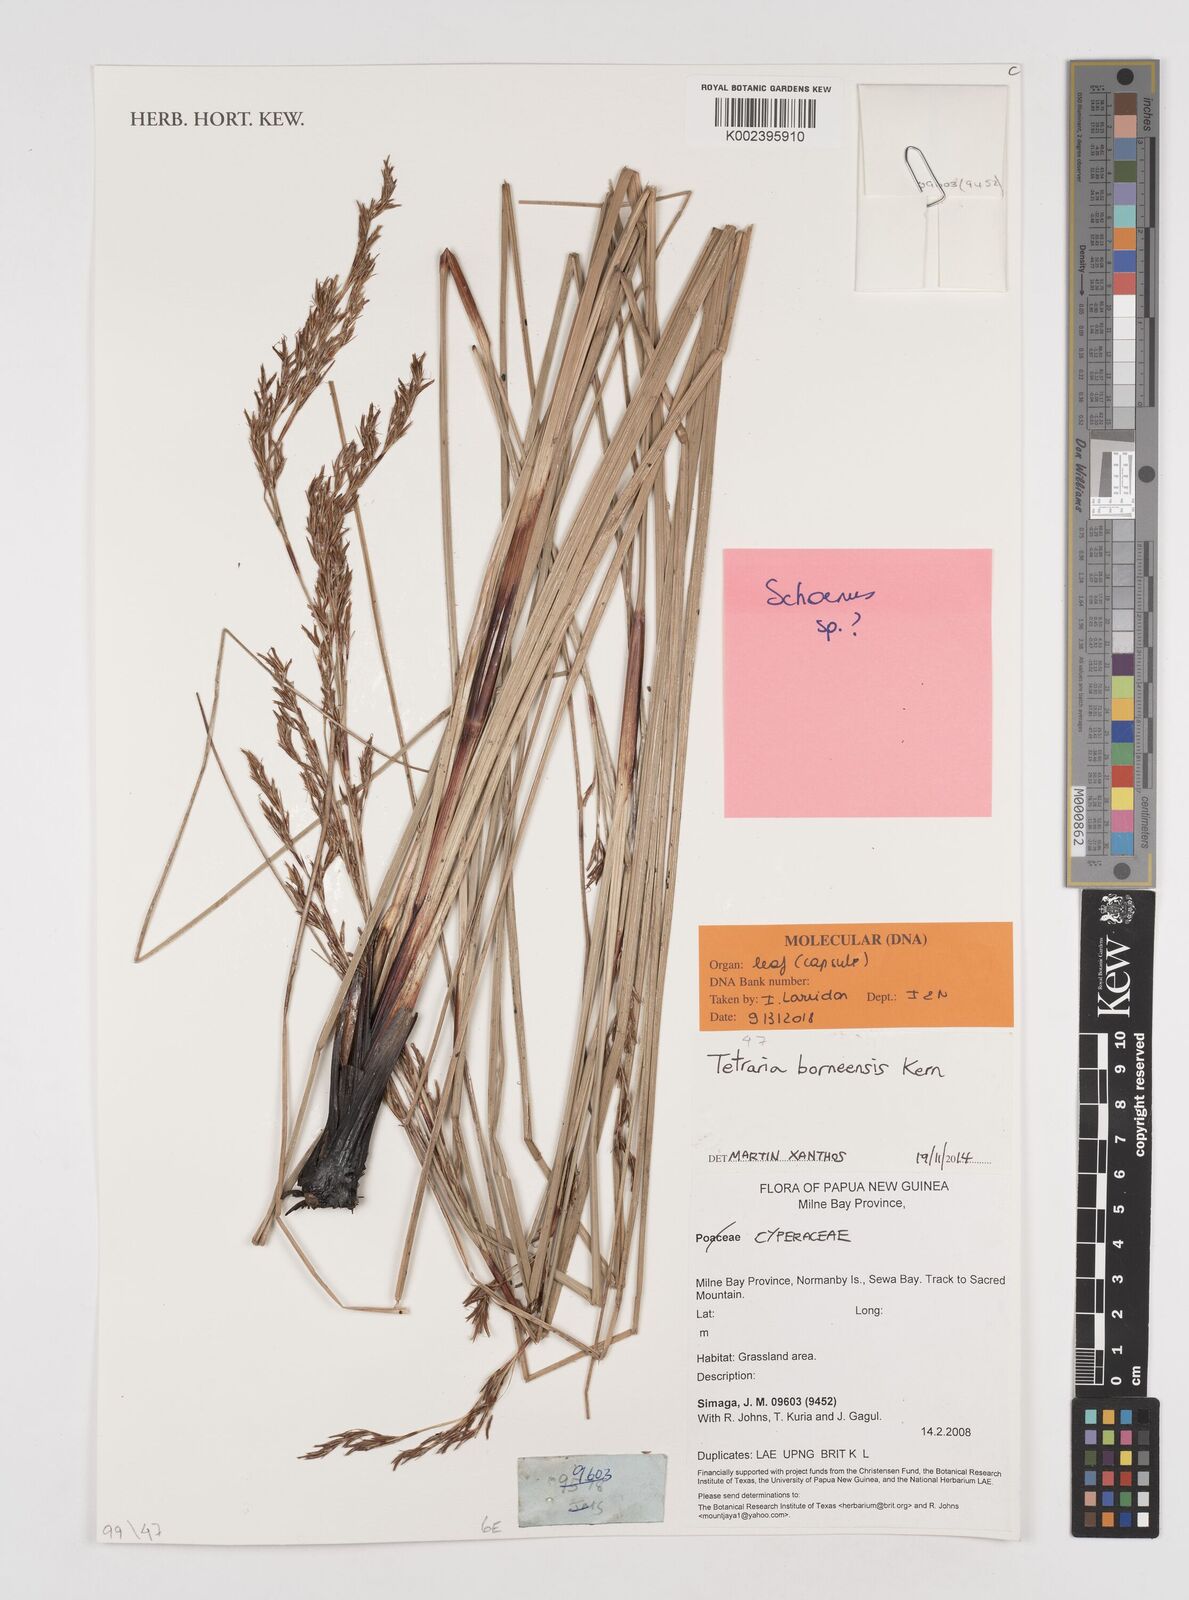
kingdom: Plantae
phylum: Tracheophyta
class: Liliopsida
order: Poales
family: Cyperaceae
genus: Tetraria
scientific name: Tetraria borneensis
